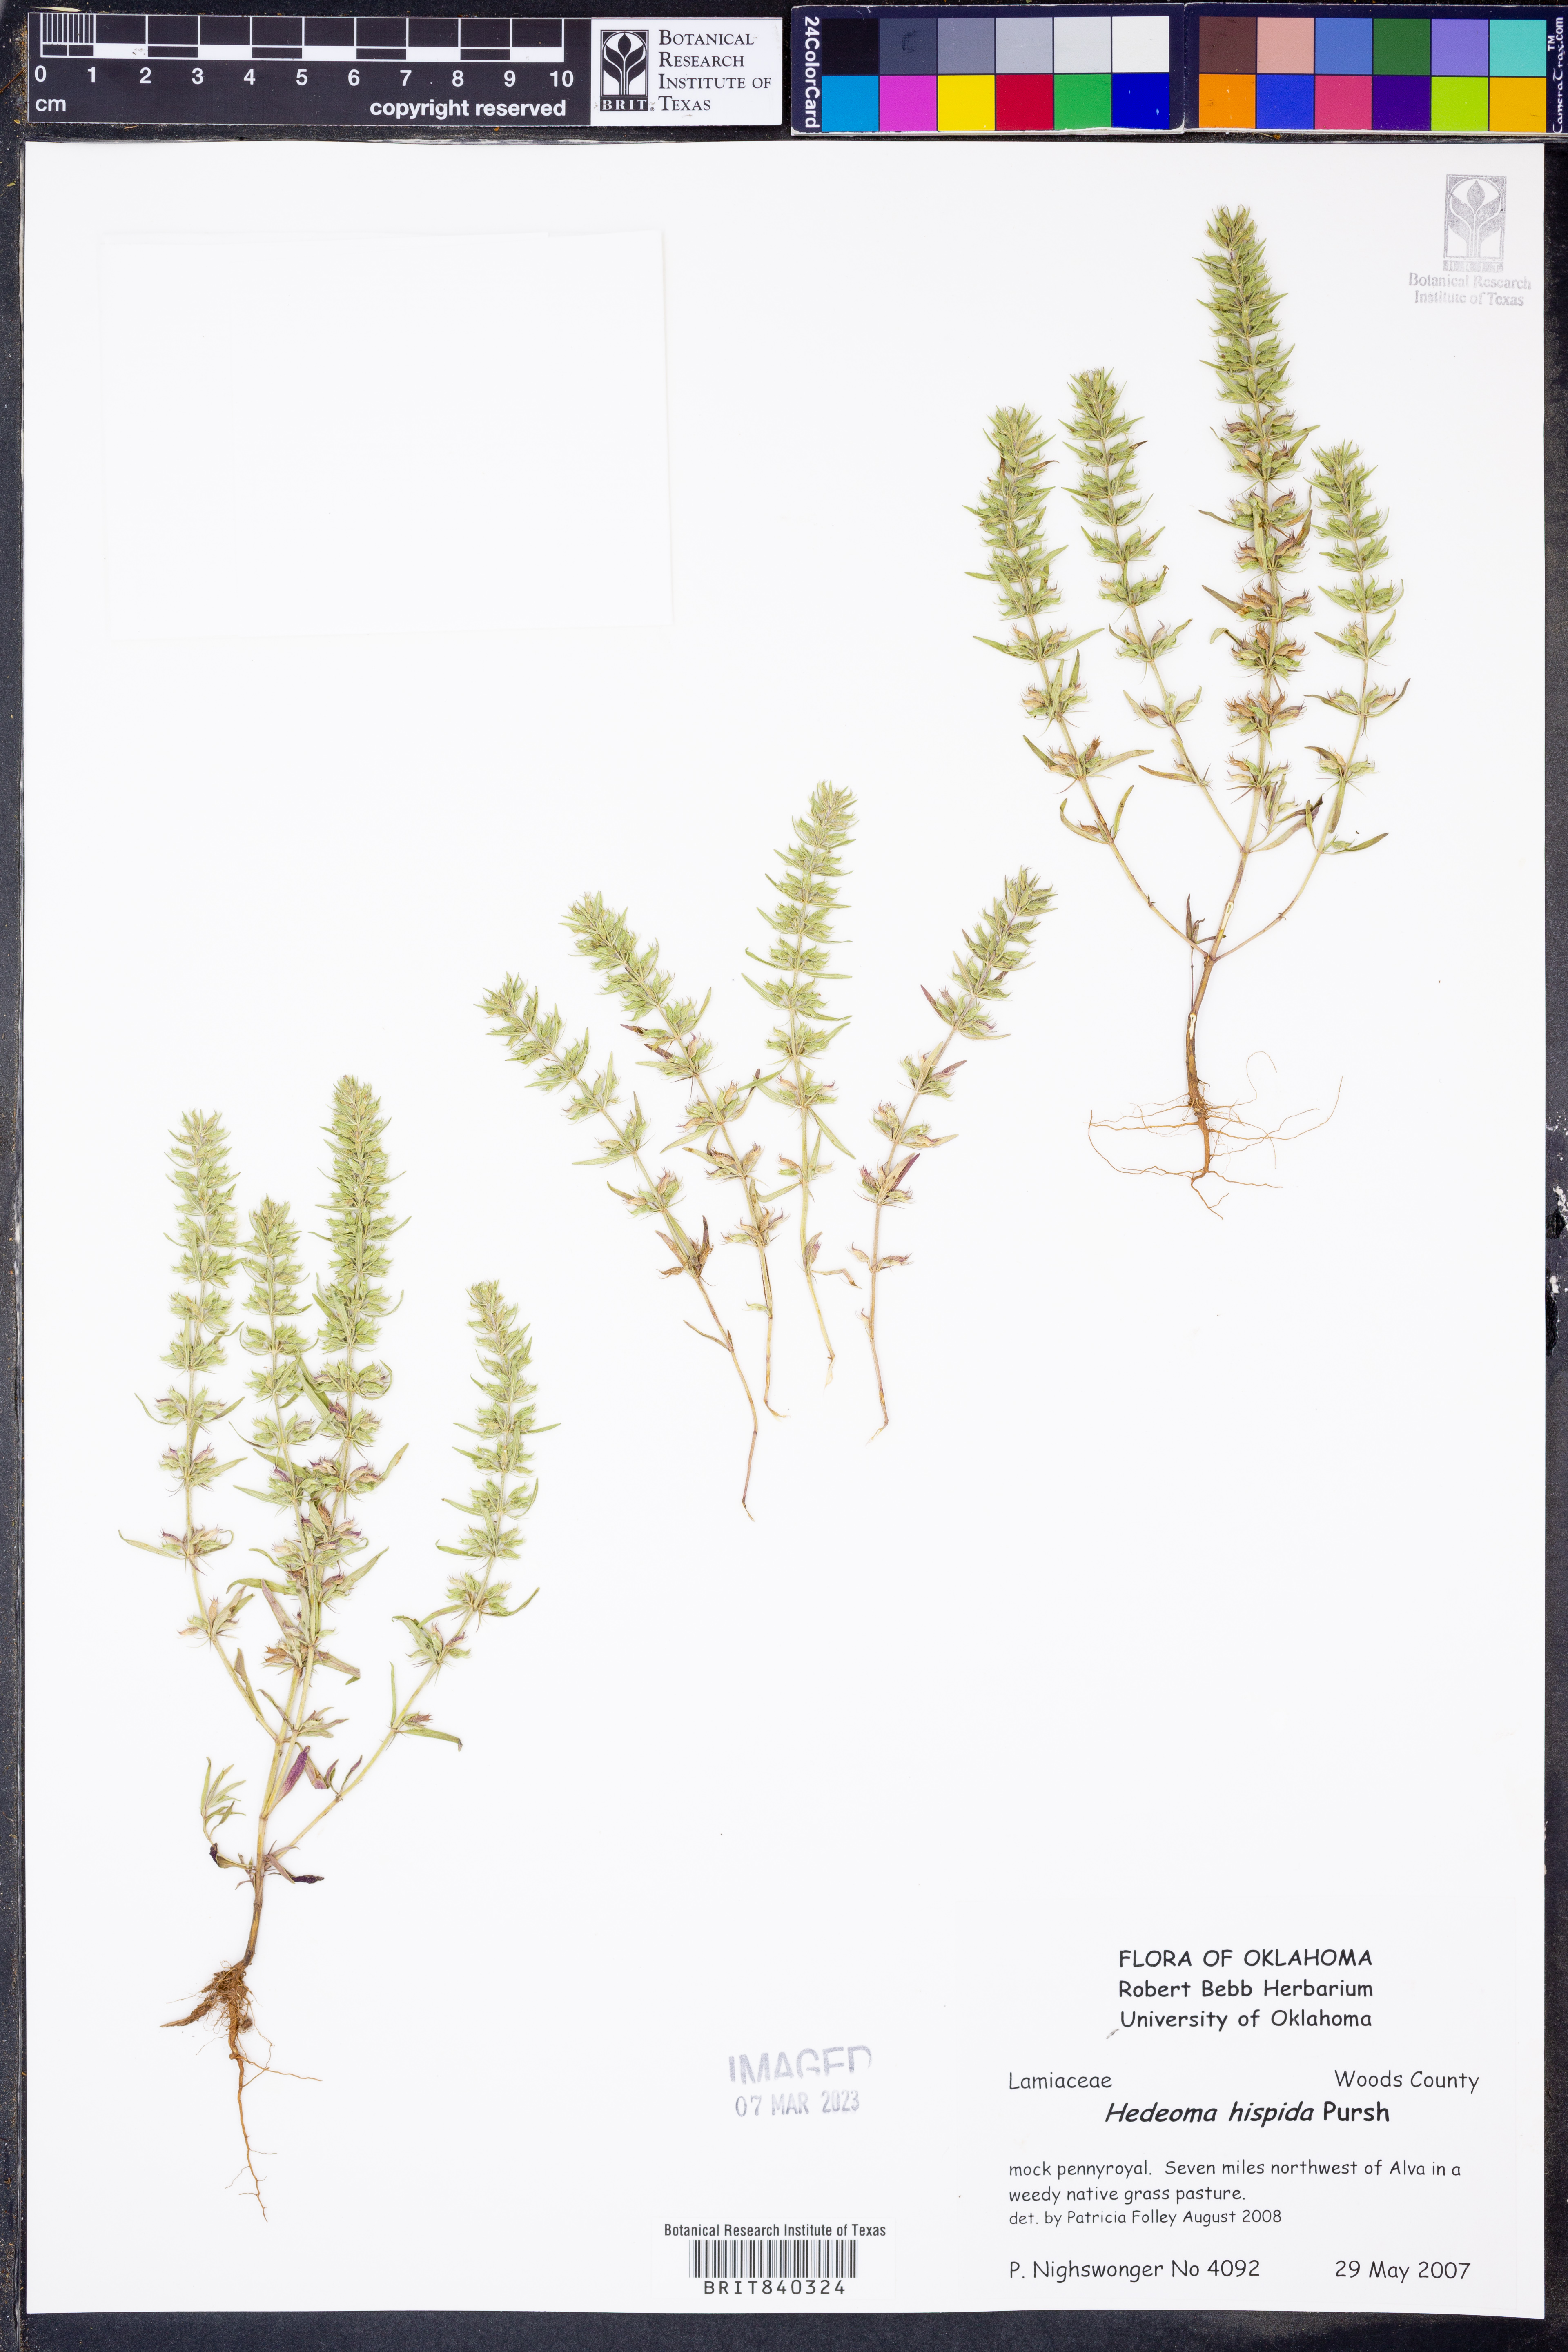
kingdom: Plantae
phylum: Tracheophyta
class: Magnoliopsida
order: Lamiales
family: Lamiaceae
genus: Hedeoma
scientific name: Hedeoma hispida
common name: Mock pennyroyal
